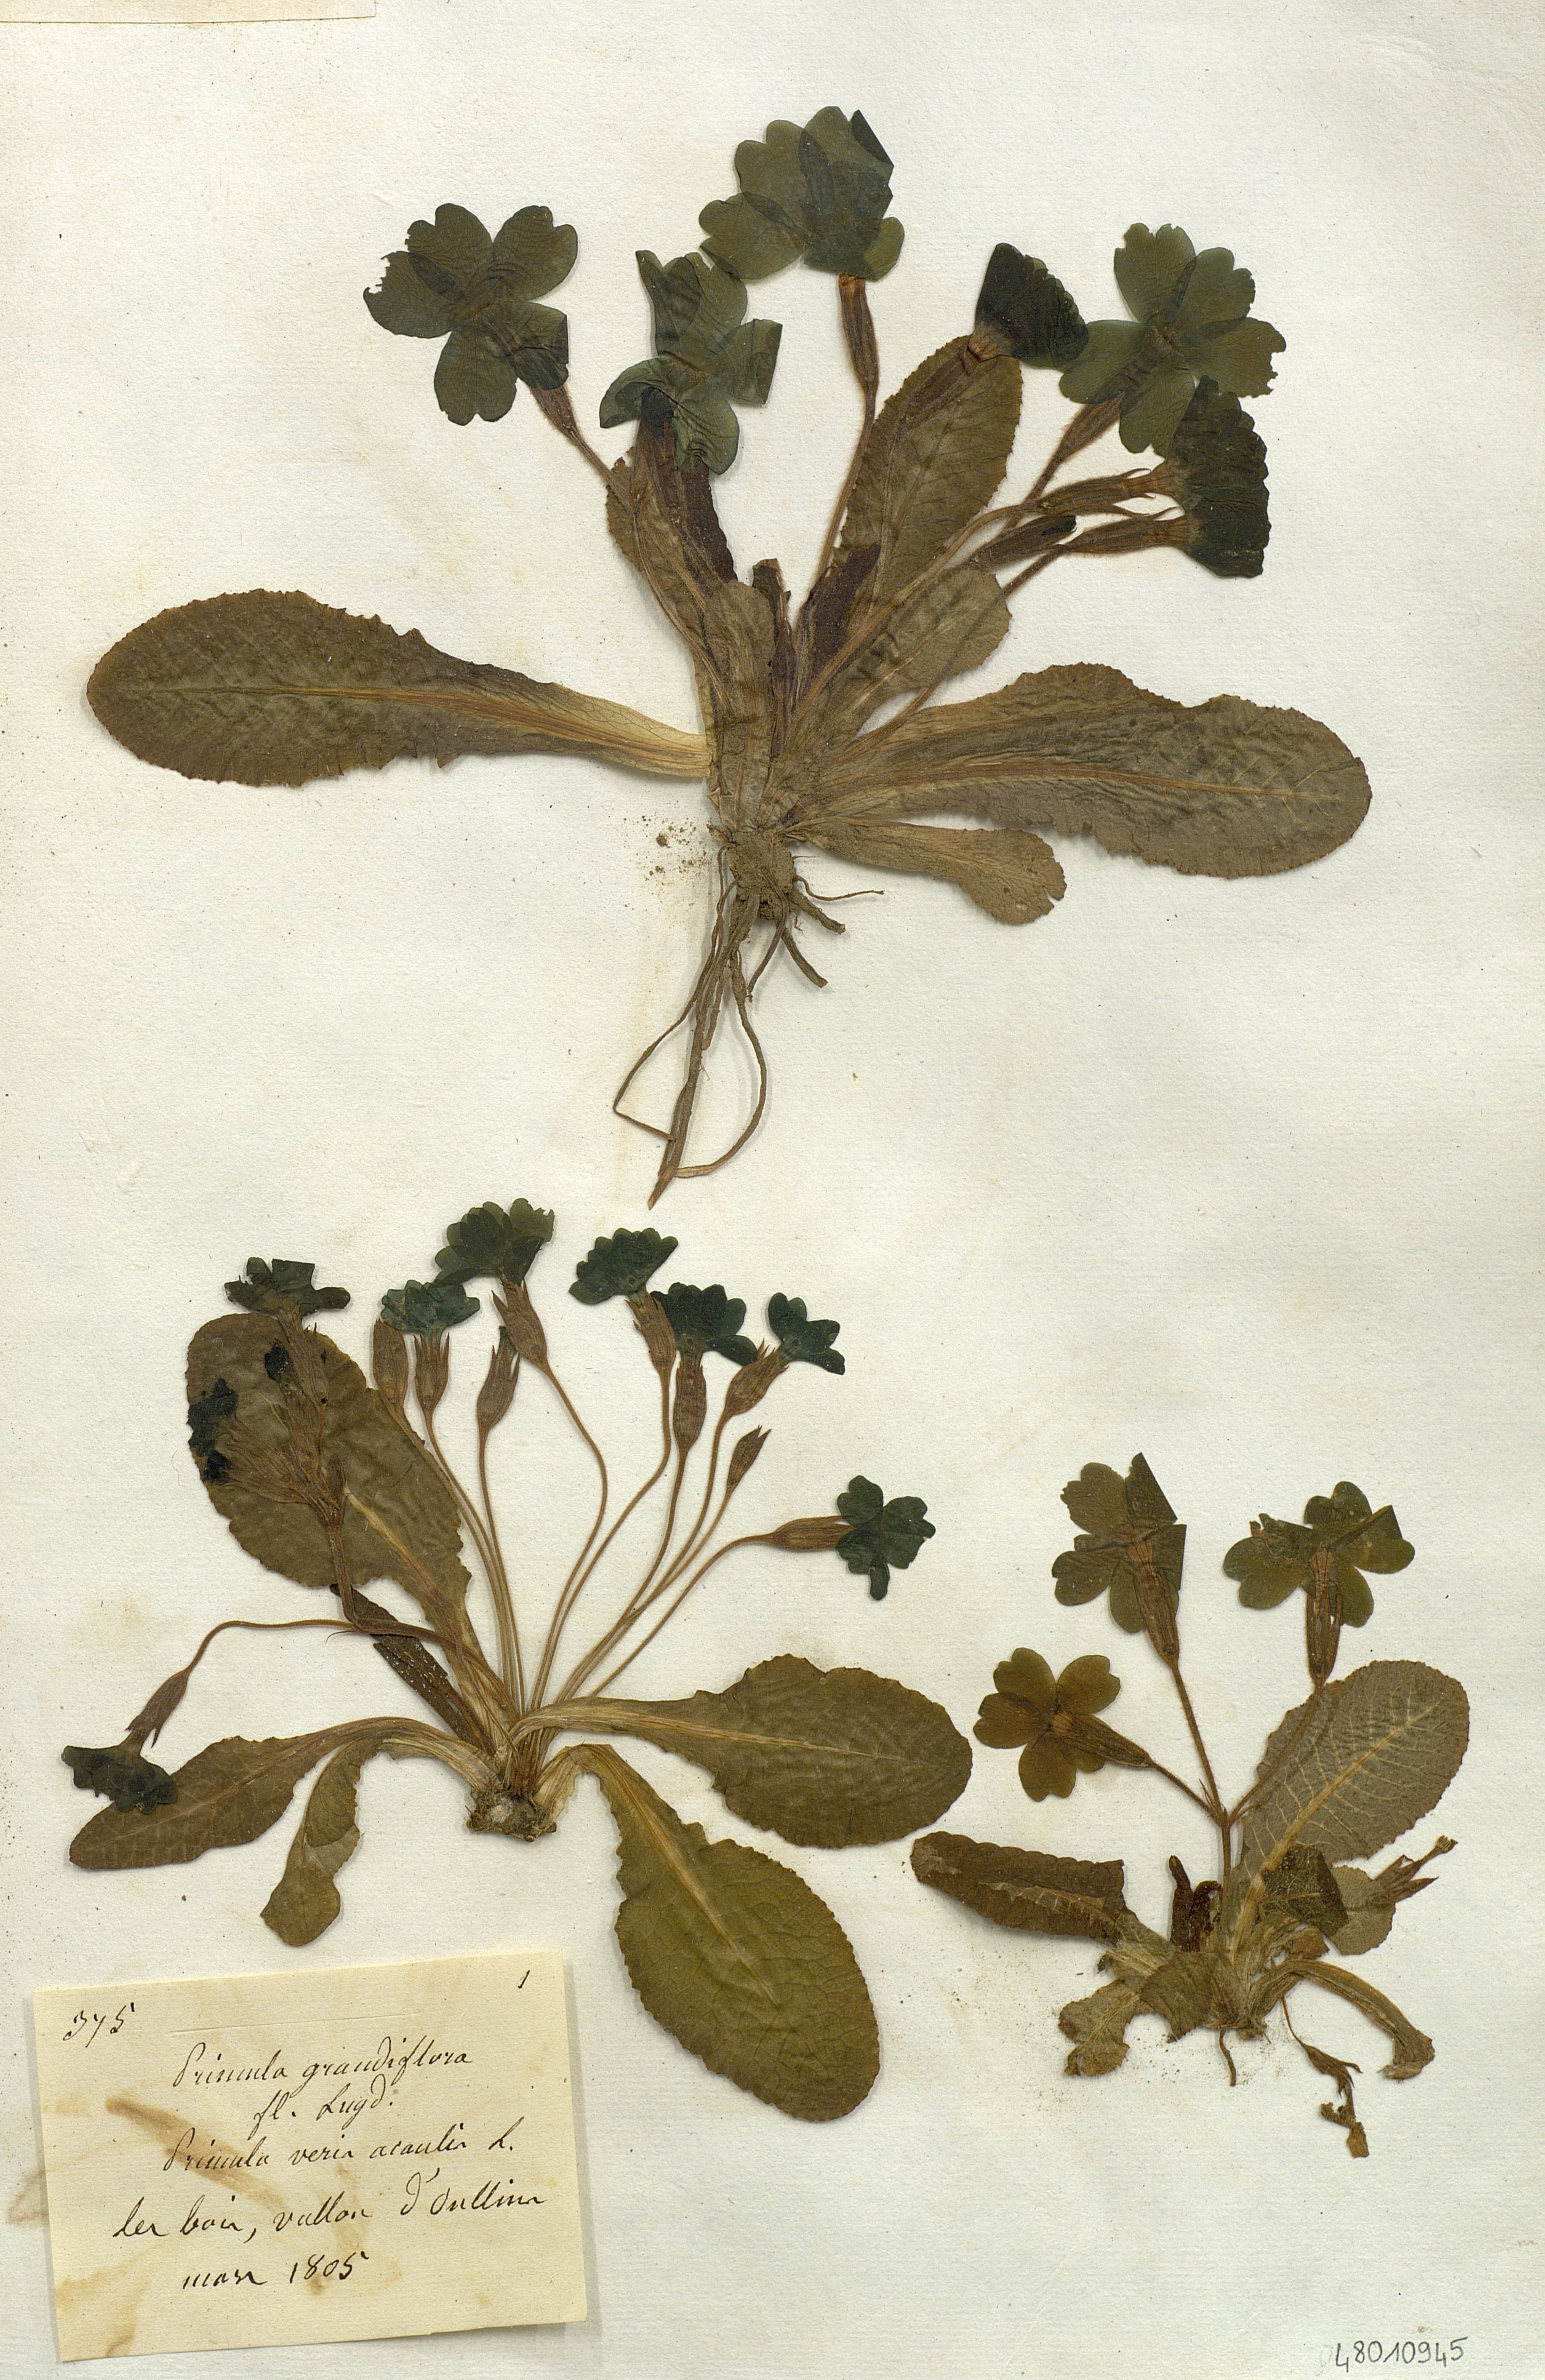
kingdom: Plantae
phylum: Tracheophyta
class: Magnoliopsida
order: Ericales
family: Primulaceae
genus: Primula
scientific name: Primula
